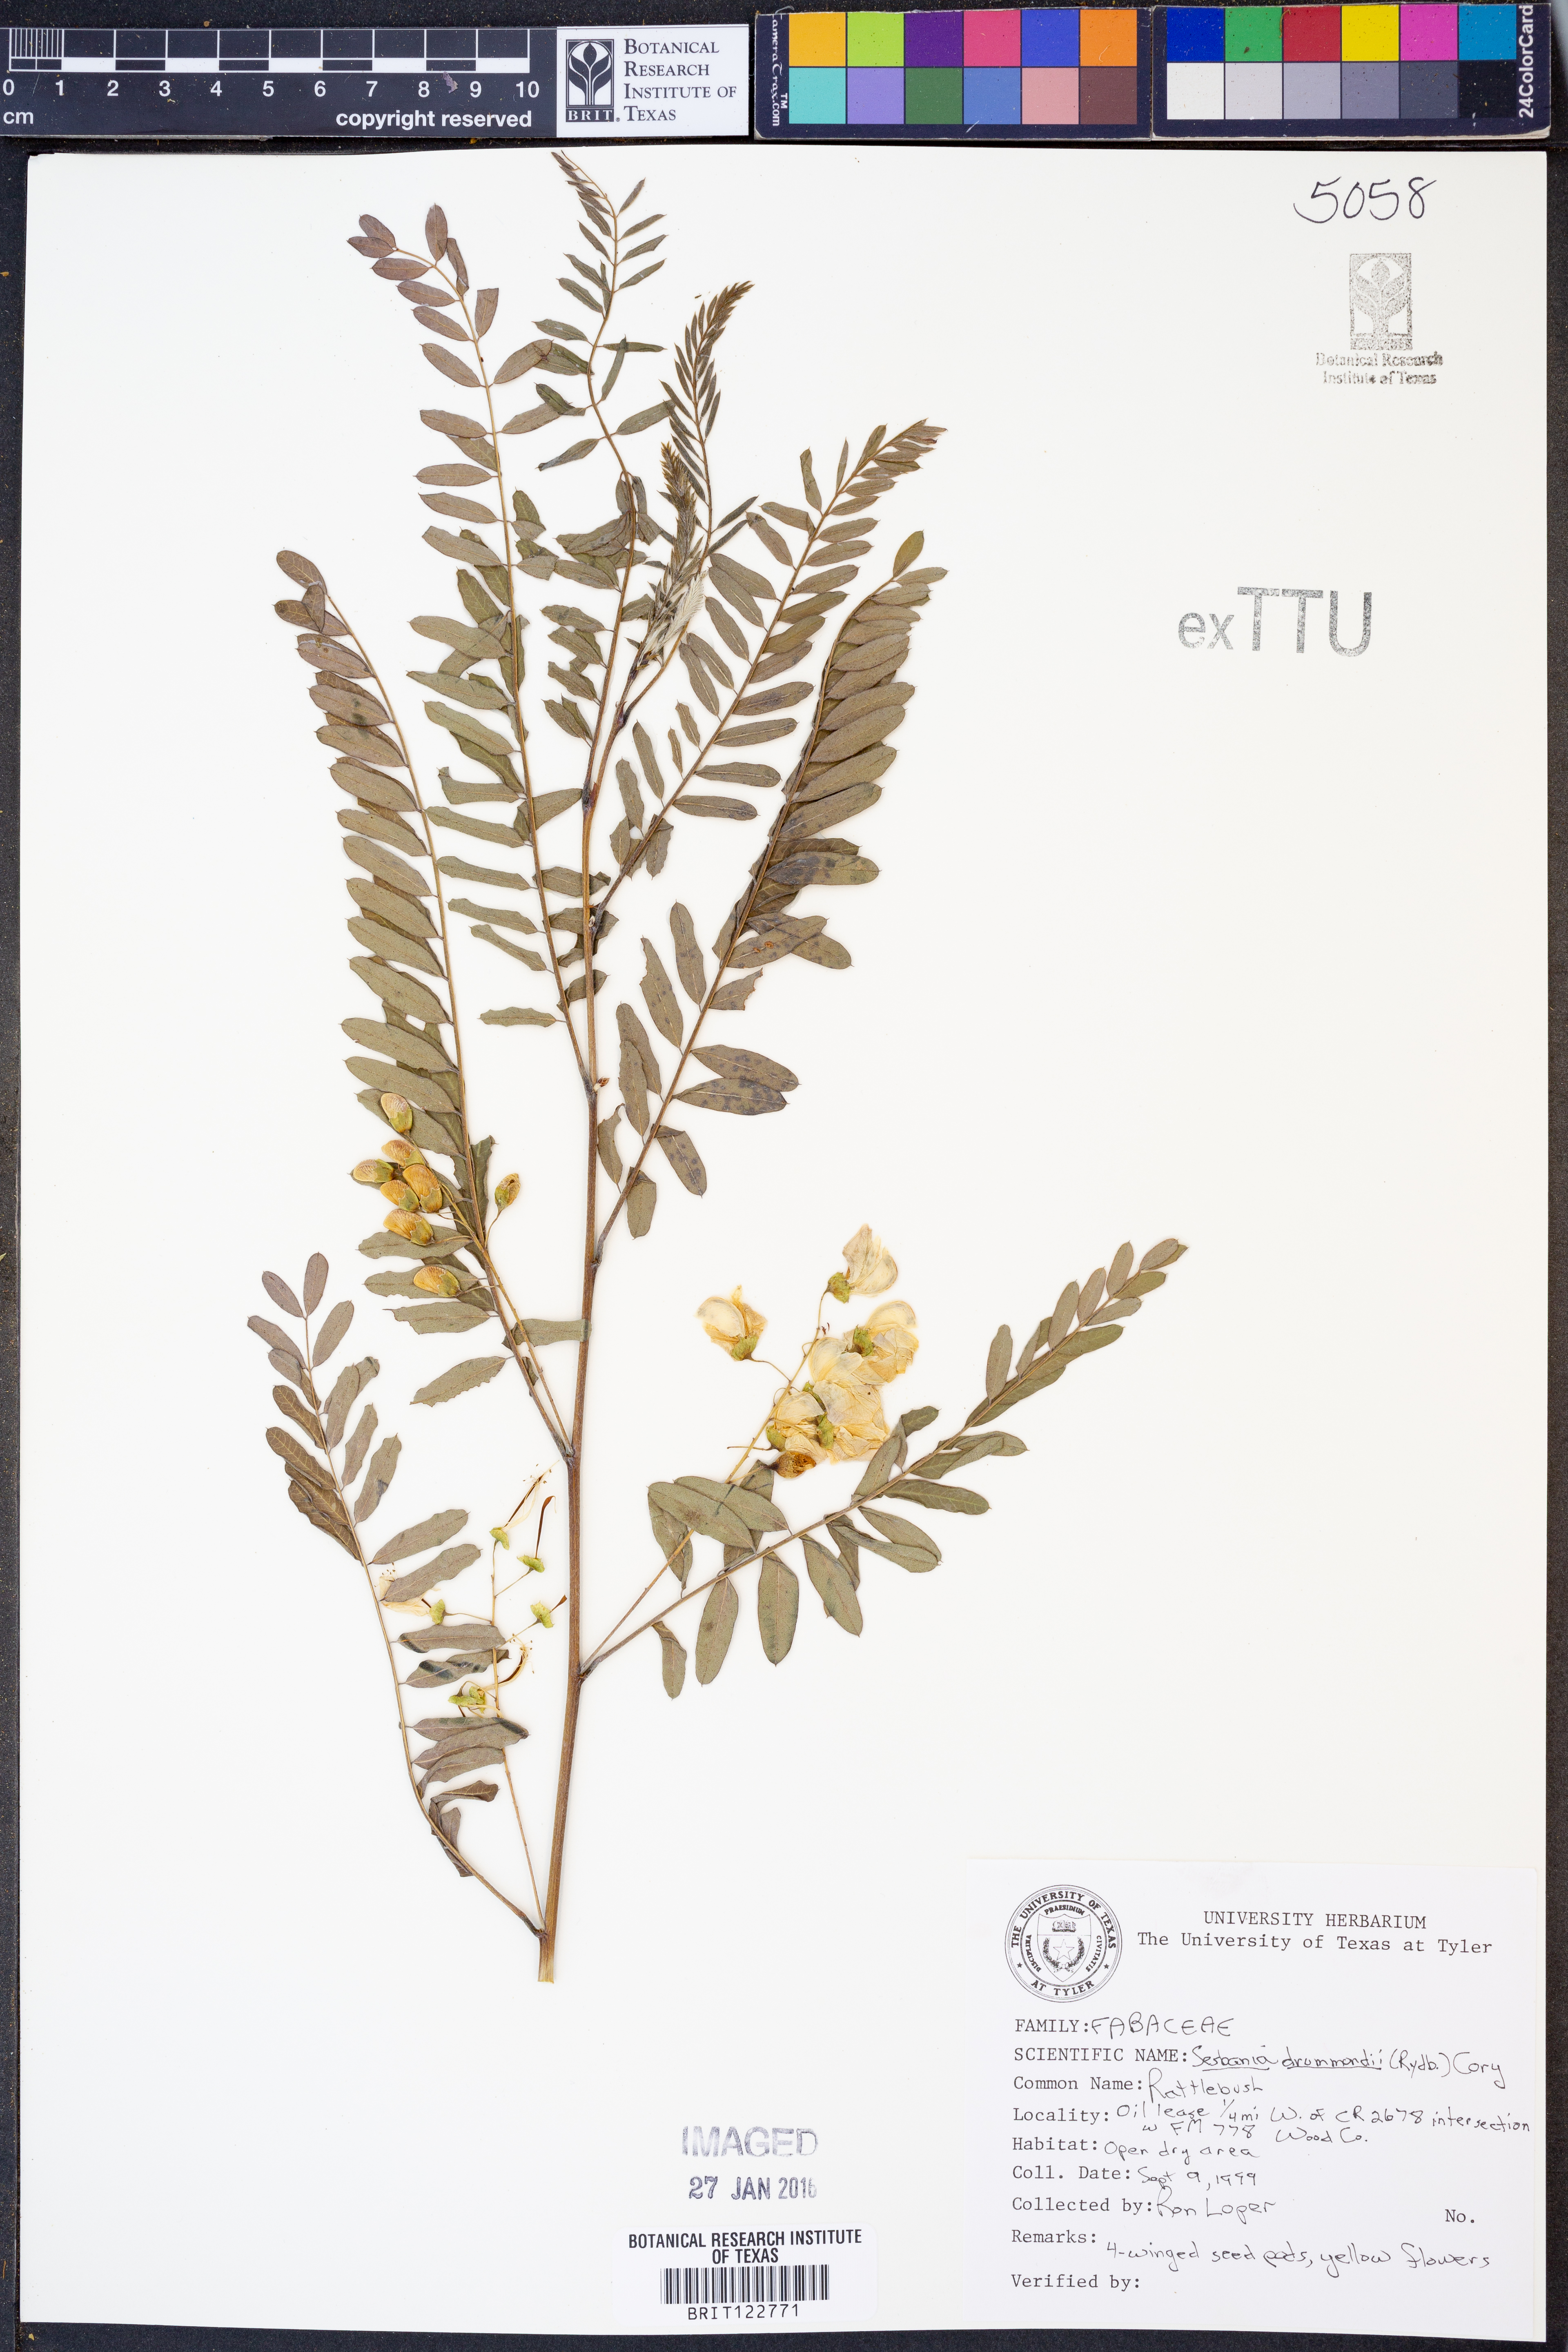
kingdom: Plantae
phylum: Tracheophyta
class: Magnoliopsida
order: Fabales
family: Fabaceae
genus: Sesbania
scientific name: Sesbania drummondii
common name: Poison-bean
